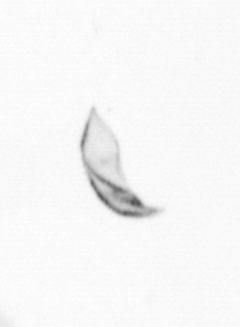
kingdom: Chromista
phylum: Ochrophyta
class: Bacillariophyceae
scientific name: Bacillariophyceae
